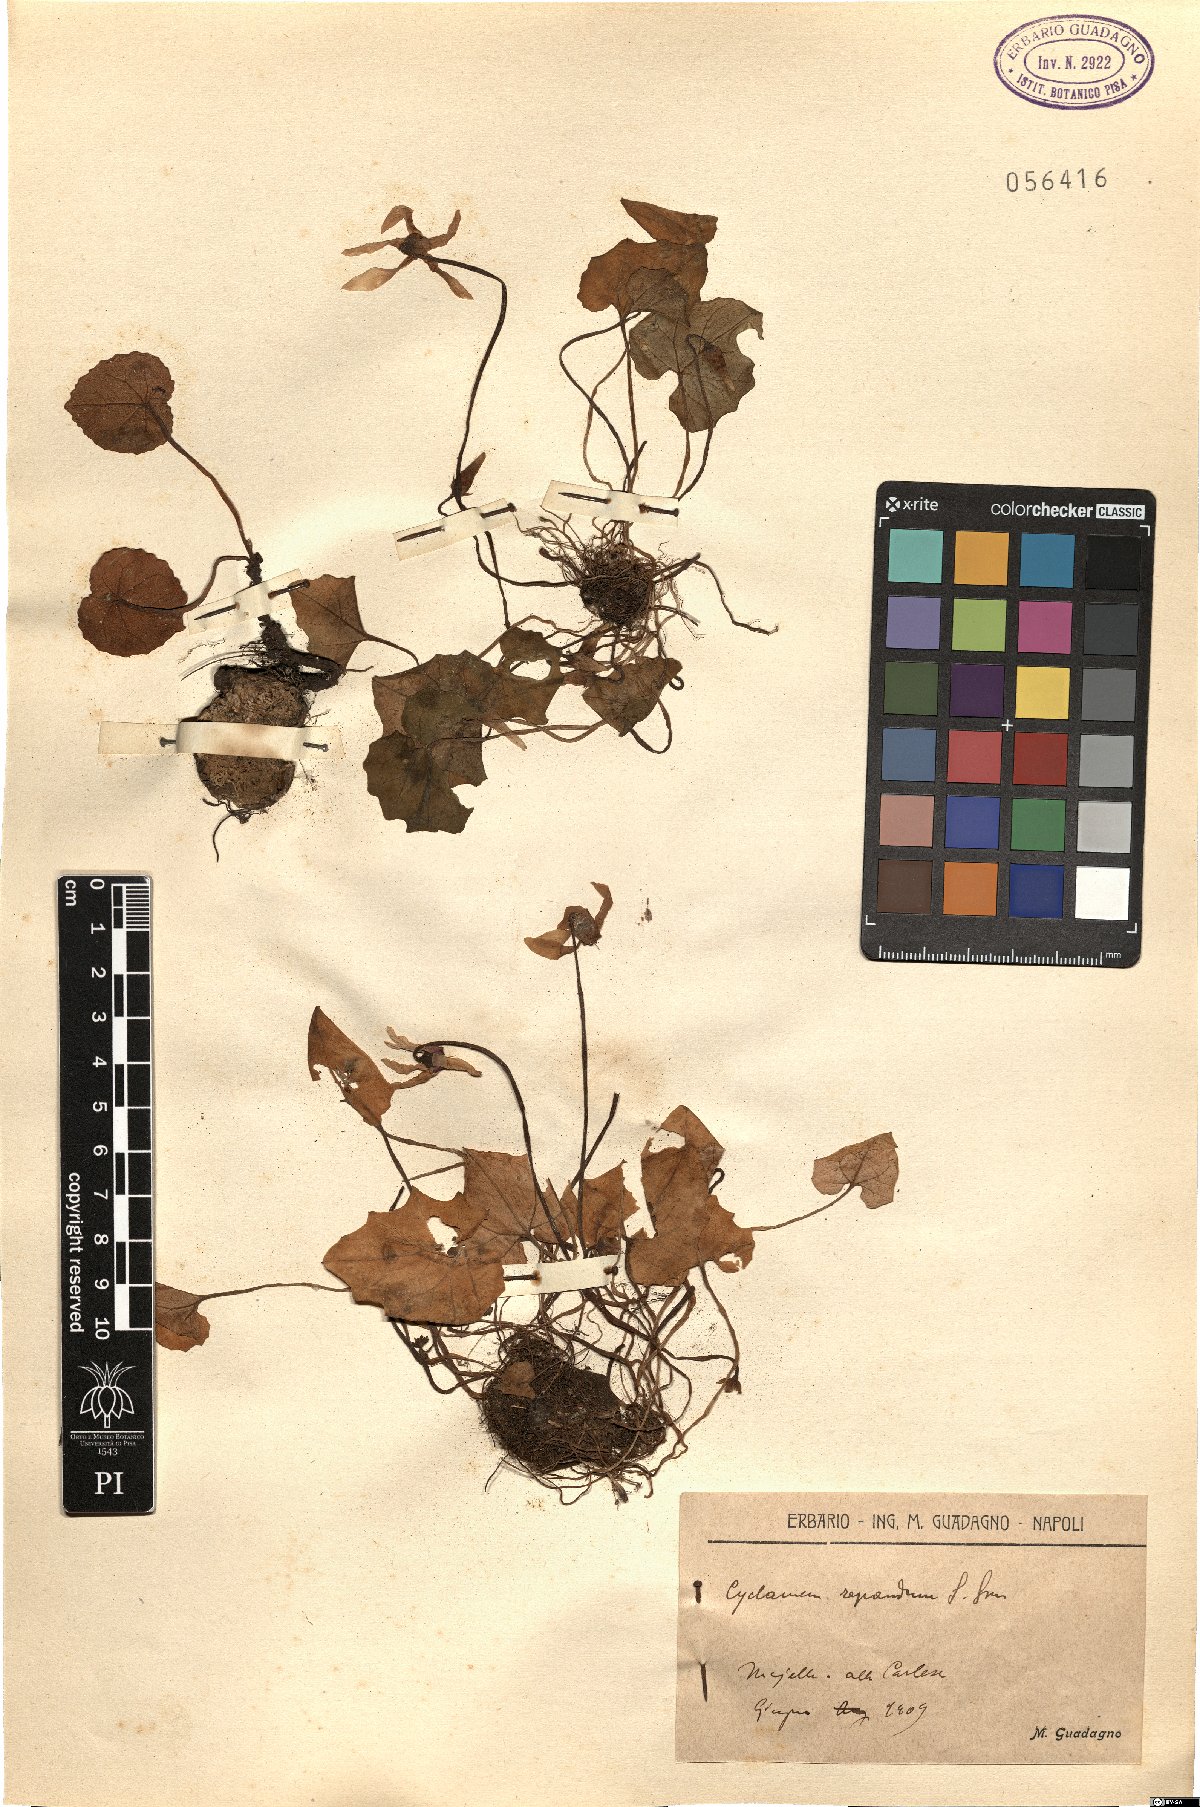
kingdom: Plantae
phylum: Tracheophyta
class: Magnoliopsida
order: Ericales
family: Primulaceae
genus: Cyclamen
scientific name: Cyclamen repandum
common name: Spring sowbread
